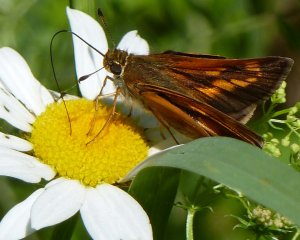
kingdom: Animalia
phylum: Arthropoda
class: Insecta
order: Lepidoptera
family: Hesperiidae
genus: Polites
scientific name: Polites
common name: Long Dash Skipper
